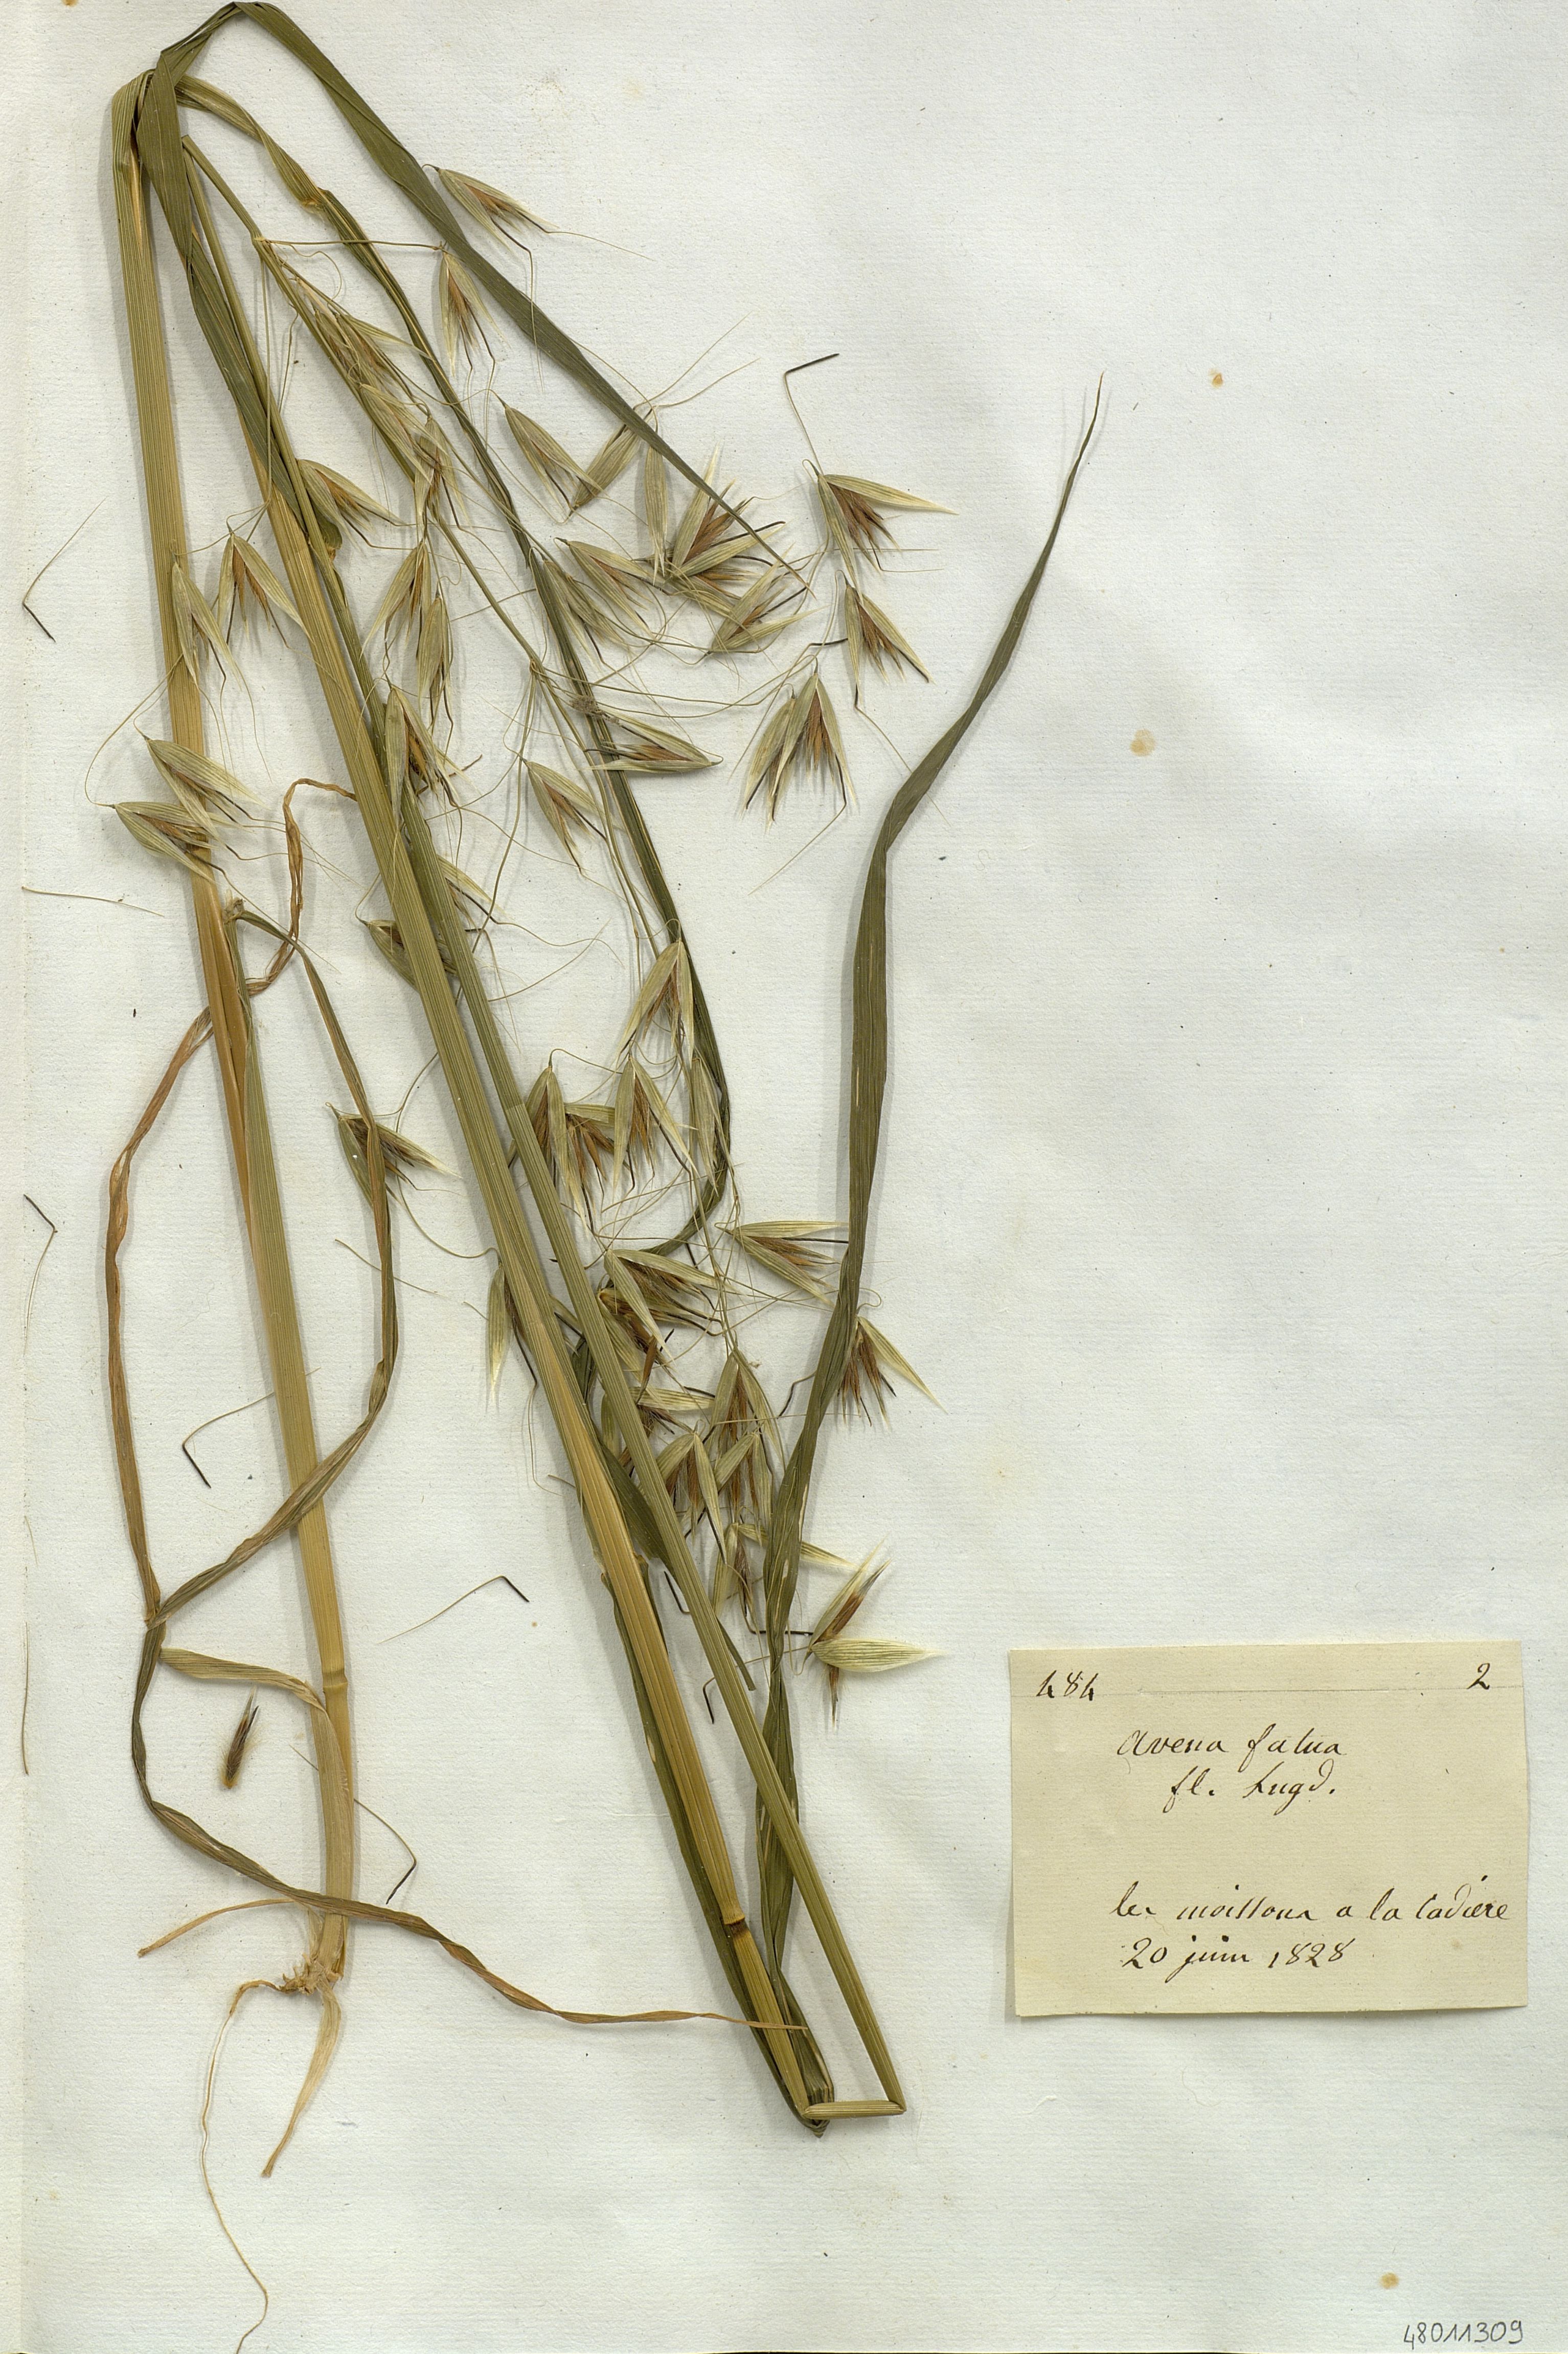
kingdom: Plantae
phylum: Tracheophyta
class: Liliopsida
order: Poales
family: Poaceae
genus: Avena
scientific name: Avena fatua
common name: Wild oat
